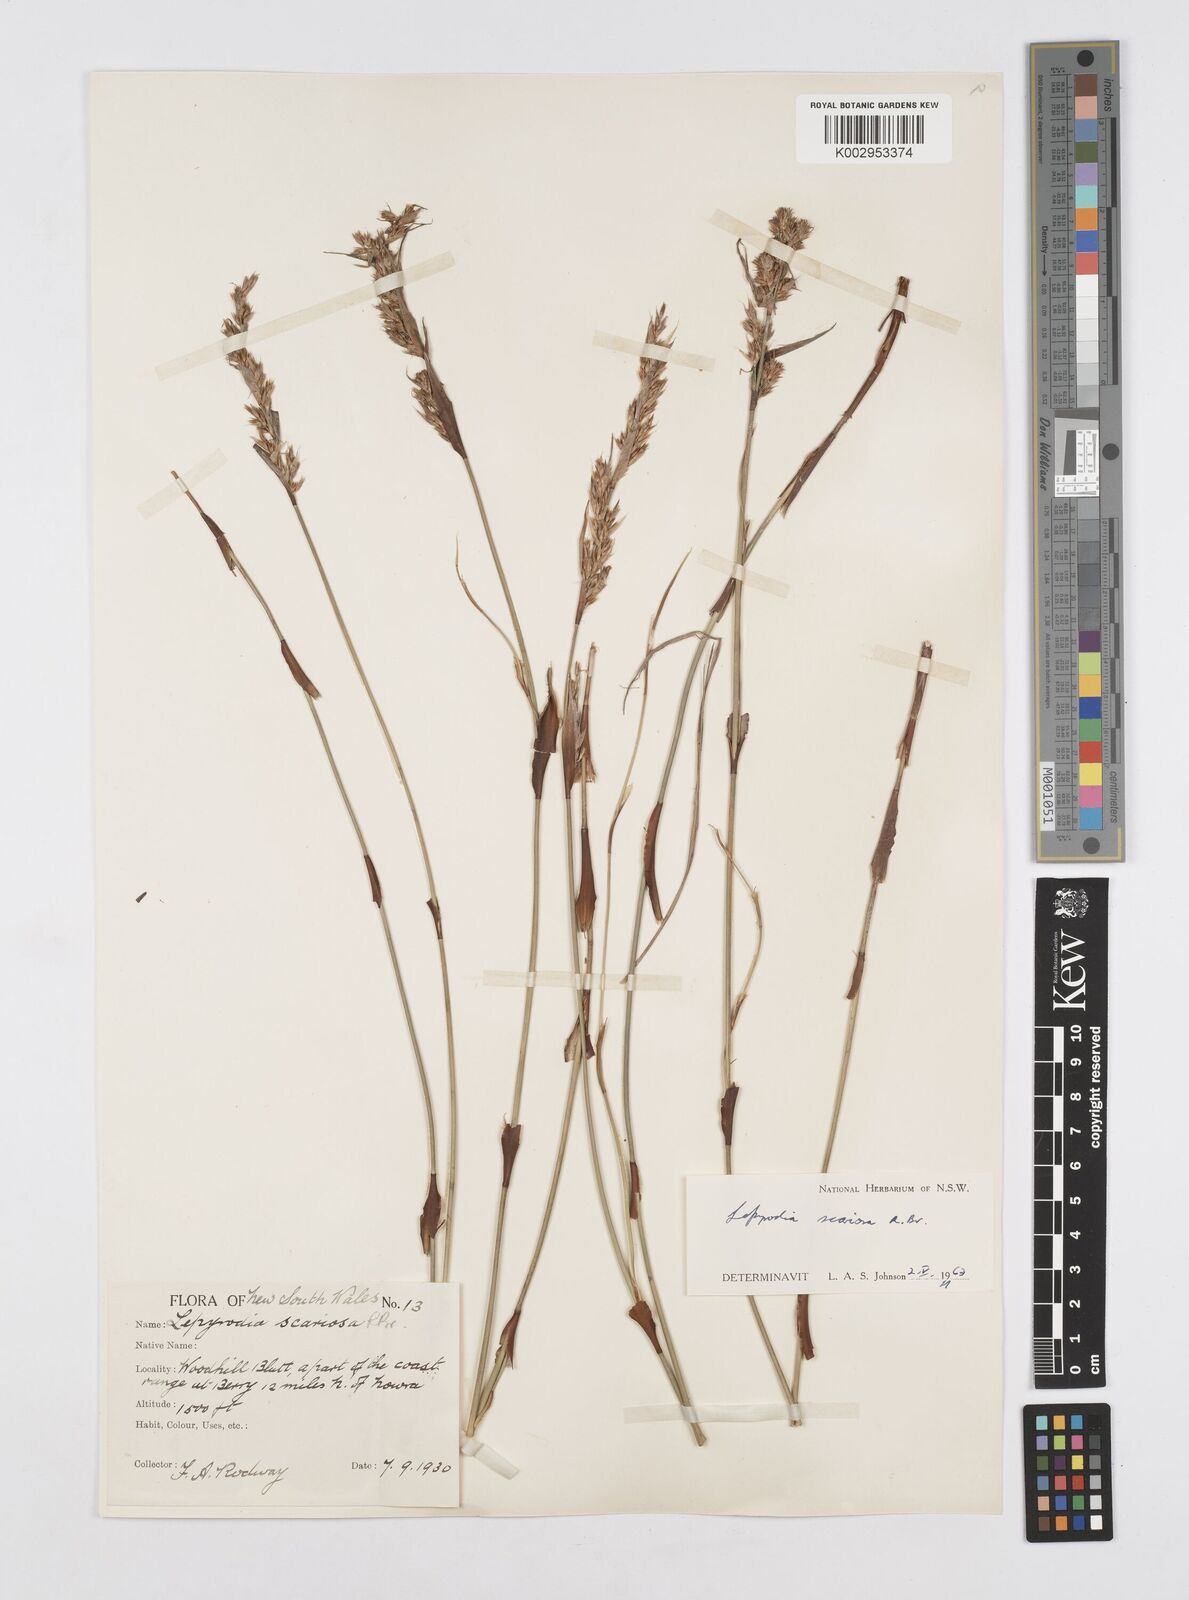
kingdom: Plantae
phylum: Tracheophyta
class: Liliopsida
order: Poales
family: Restionaceae
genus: Lepyrodia
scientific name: Lepyrodia scariosa
